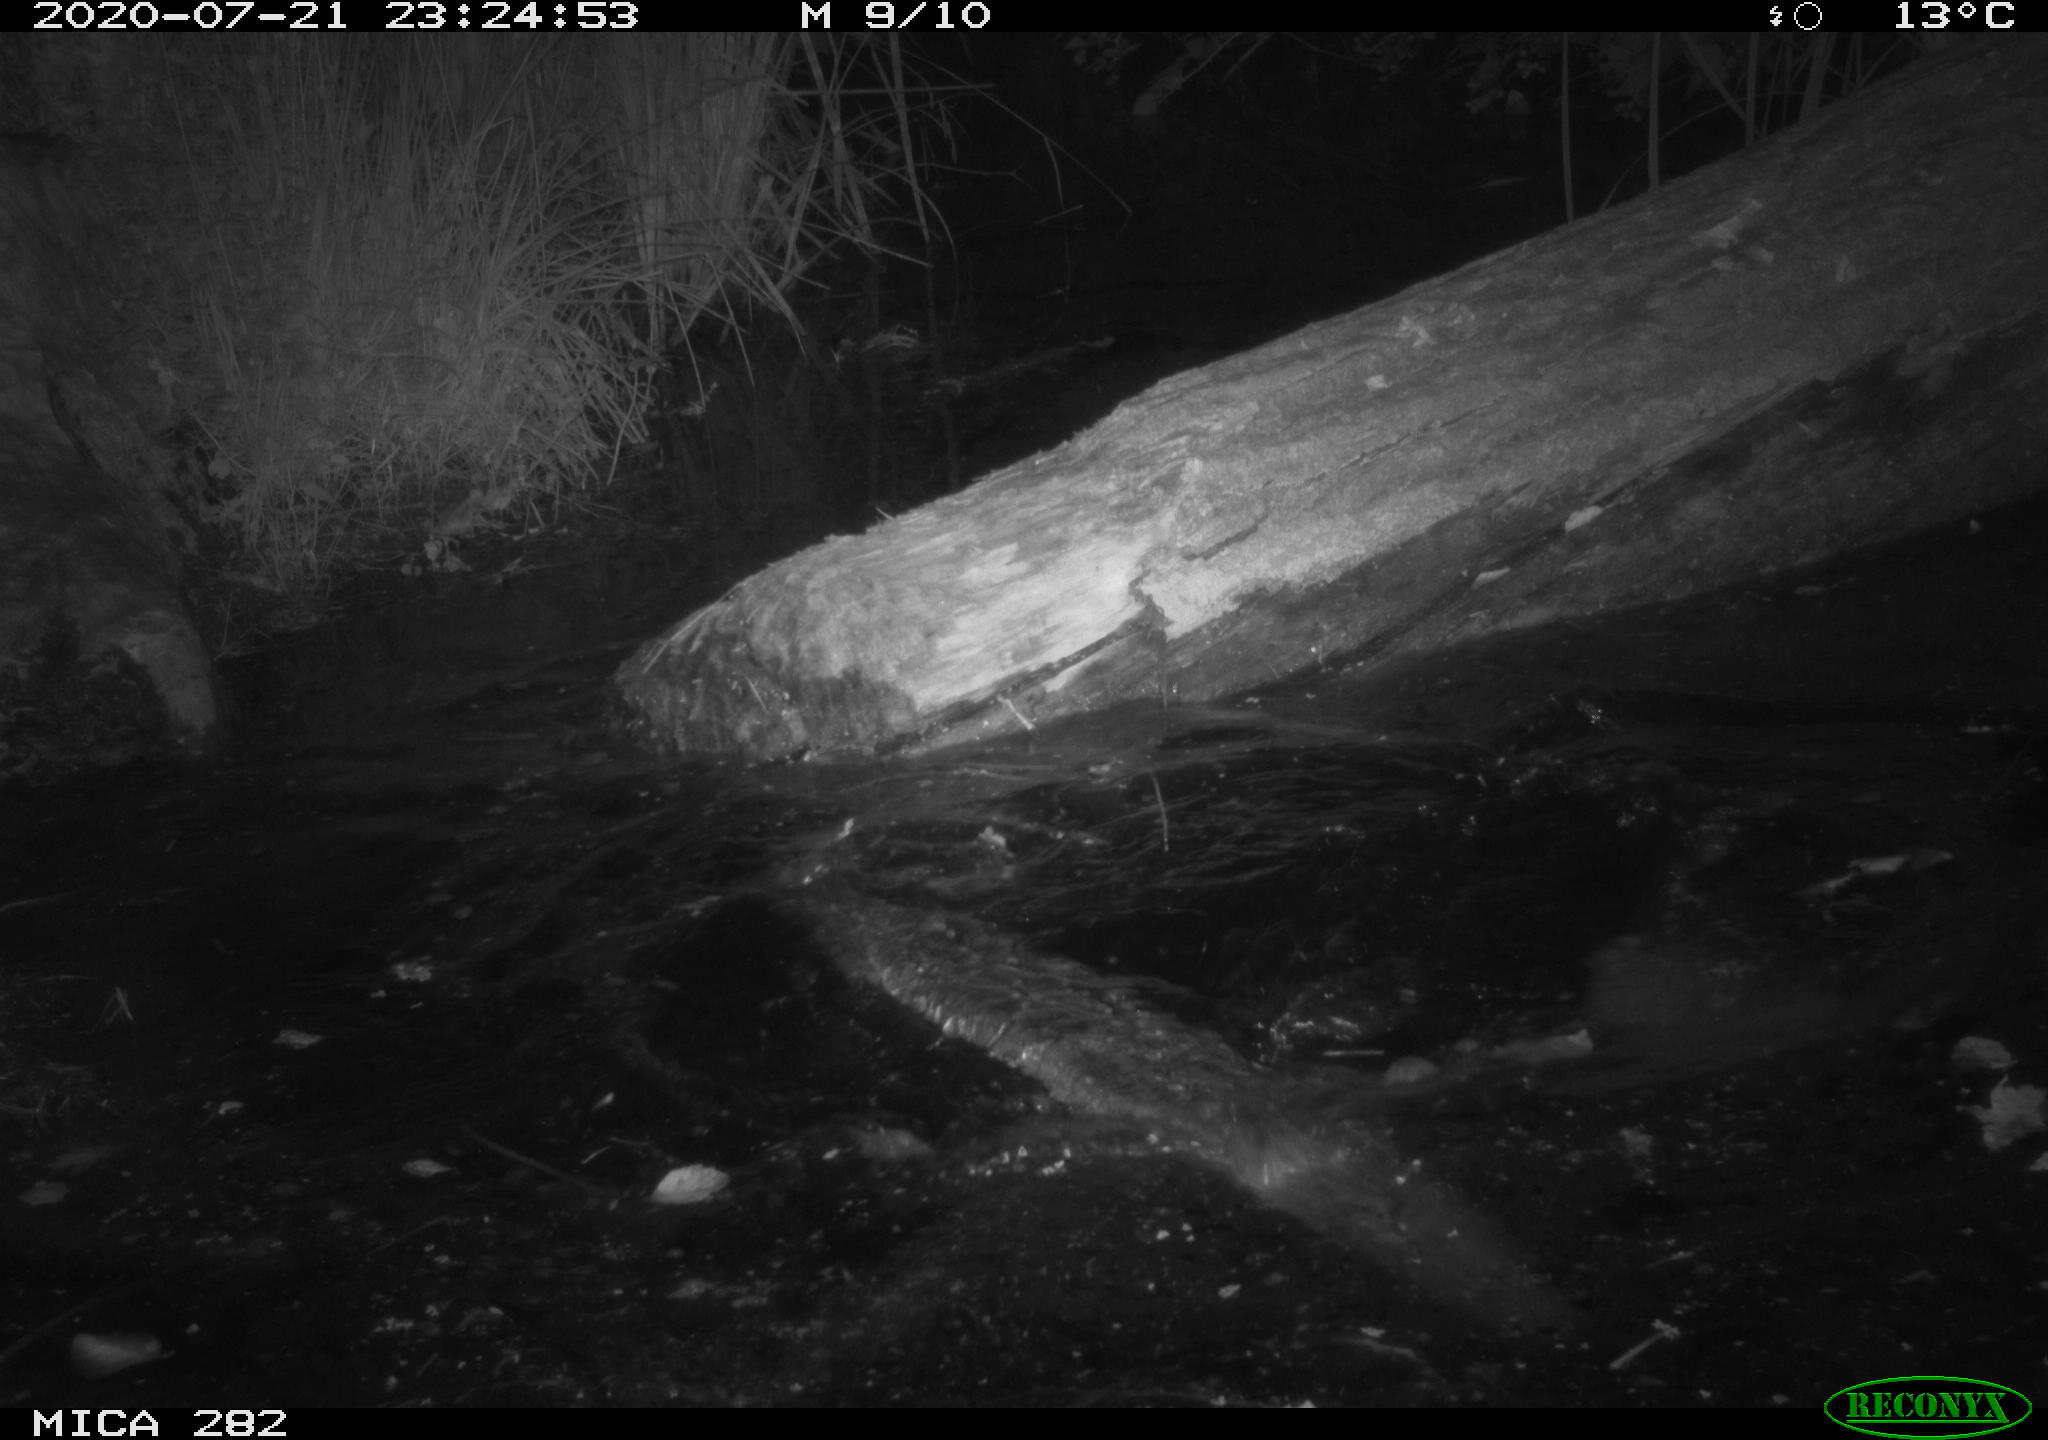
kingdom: Animalia
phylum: Chordata
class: Mammalia
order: Rodentia
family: Castoridae
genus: Castor
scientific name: Castor fiber
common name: Eurasian beaver
